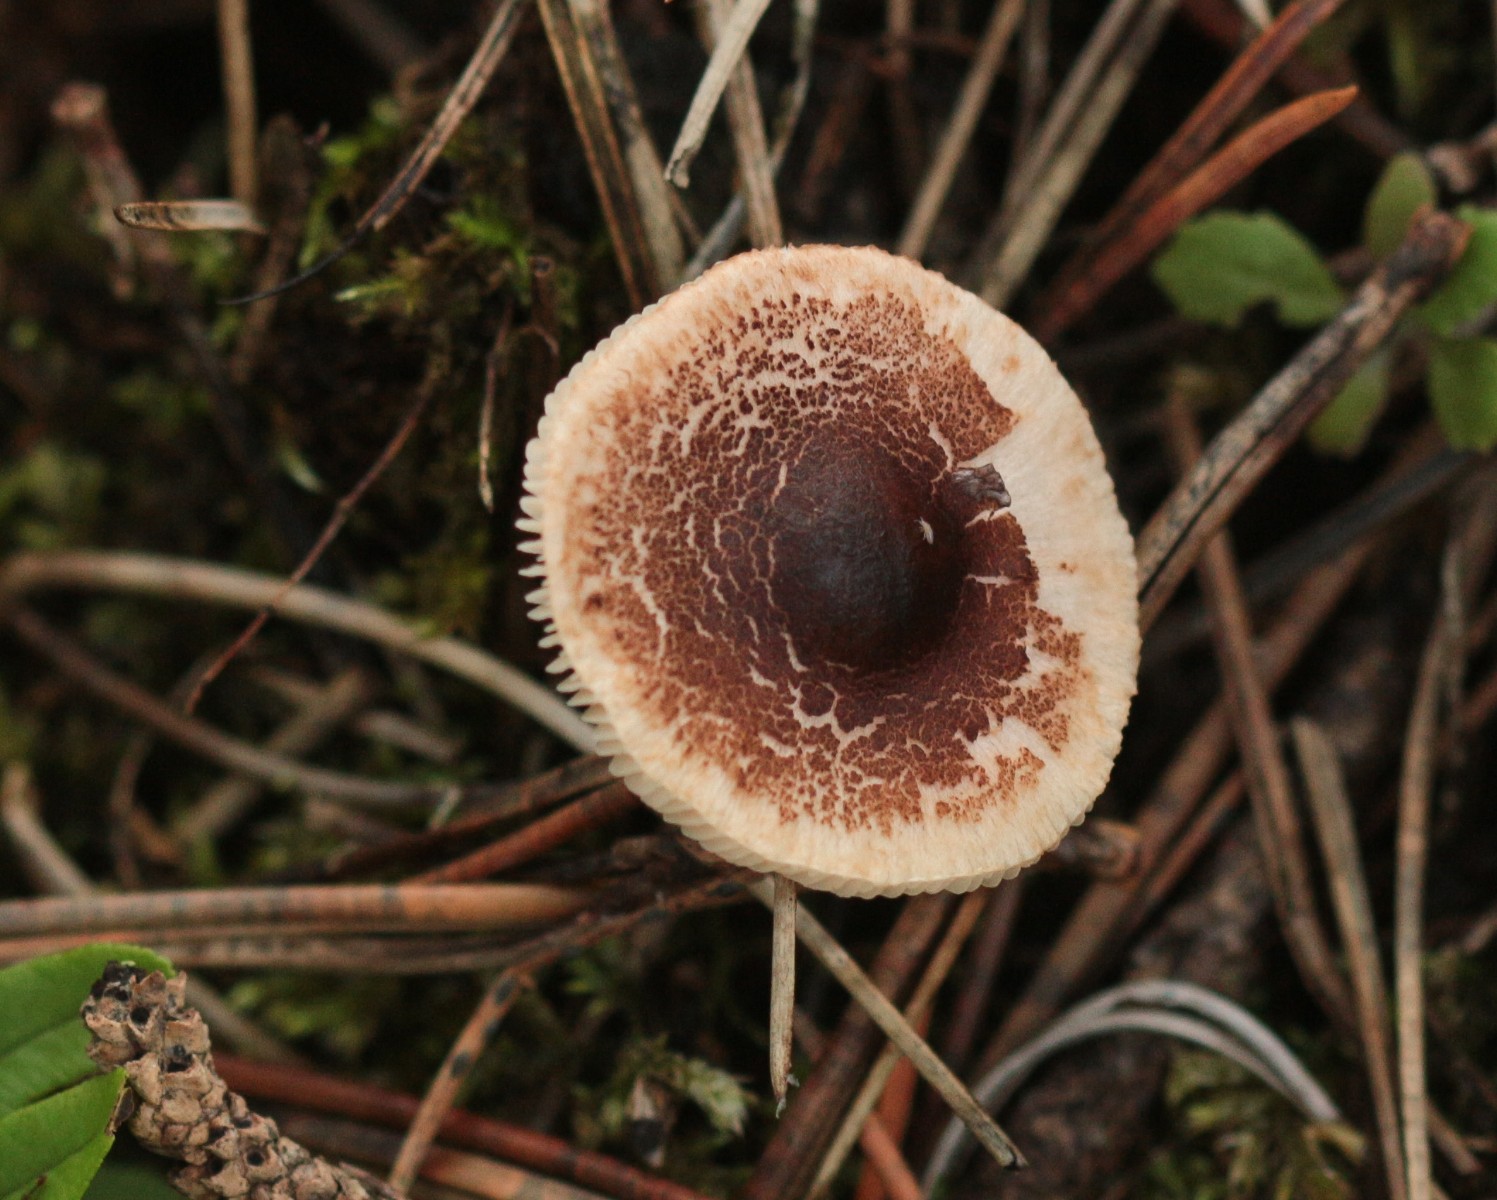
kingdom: Fungi
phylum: Basidiomycota
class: Agaricomycetes
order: Agaricales
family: Agaricaceae
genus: Lepiota
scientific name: Lepiota
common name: parasolhat
